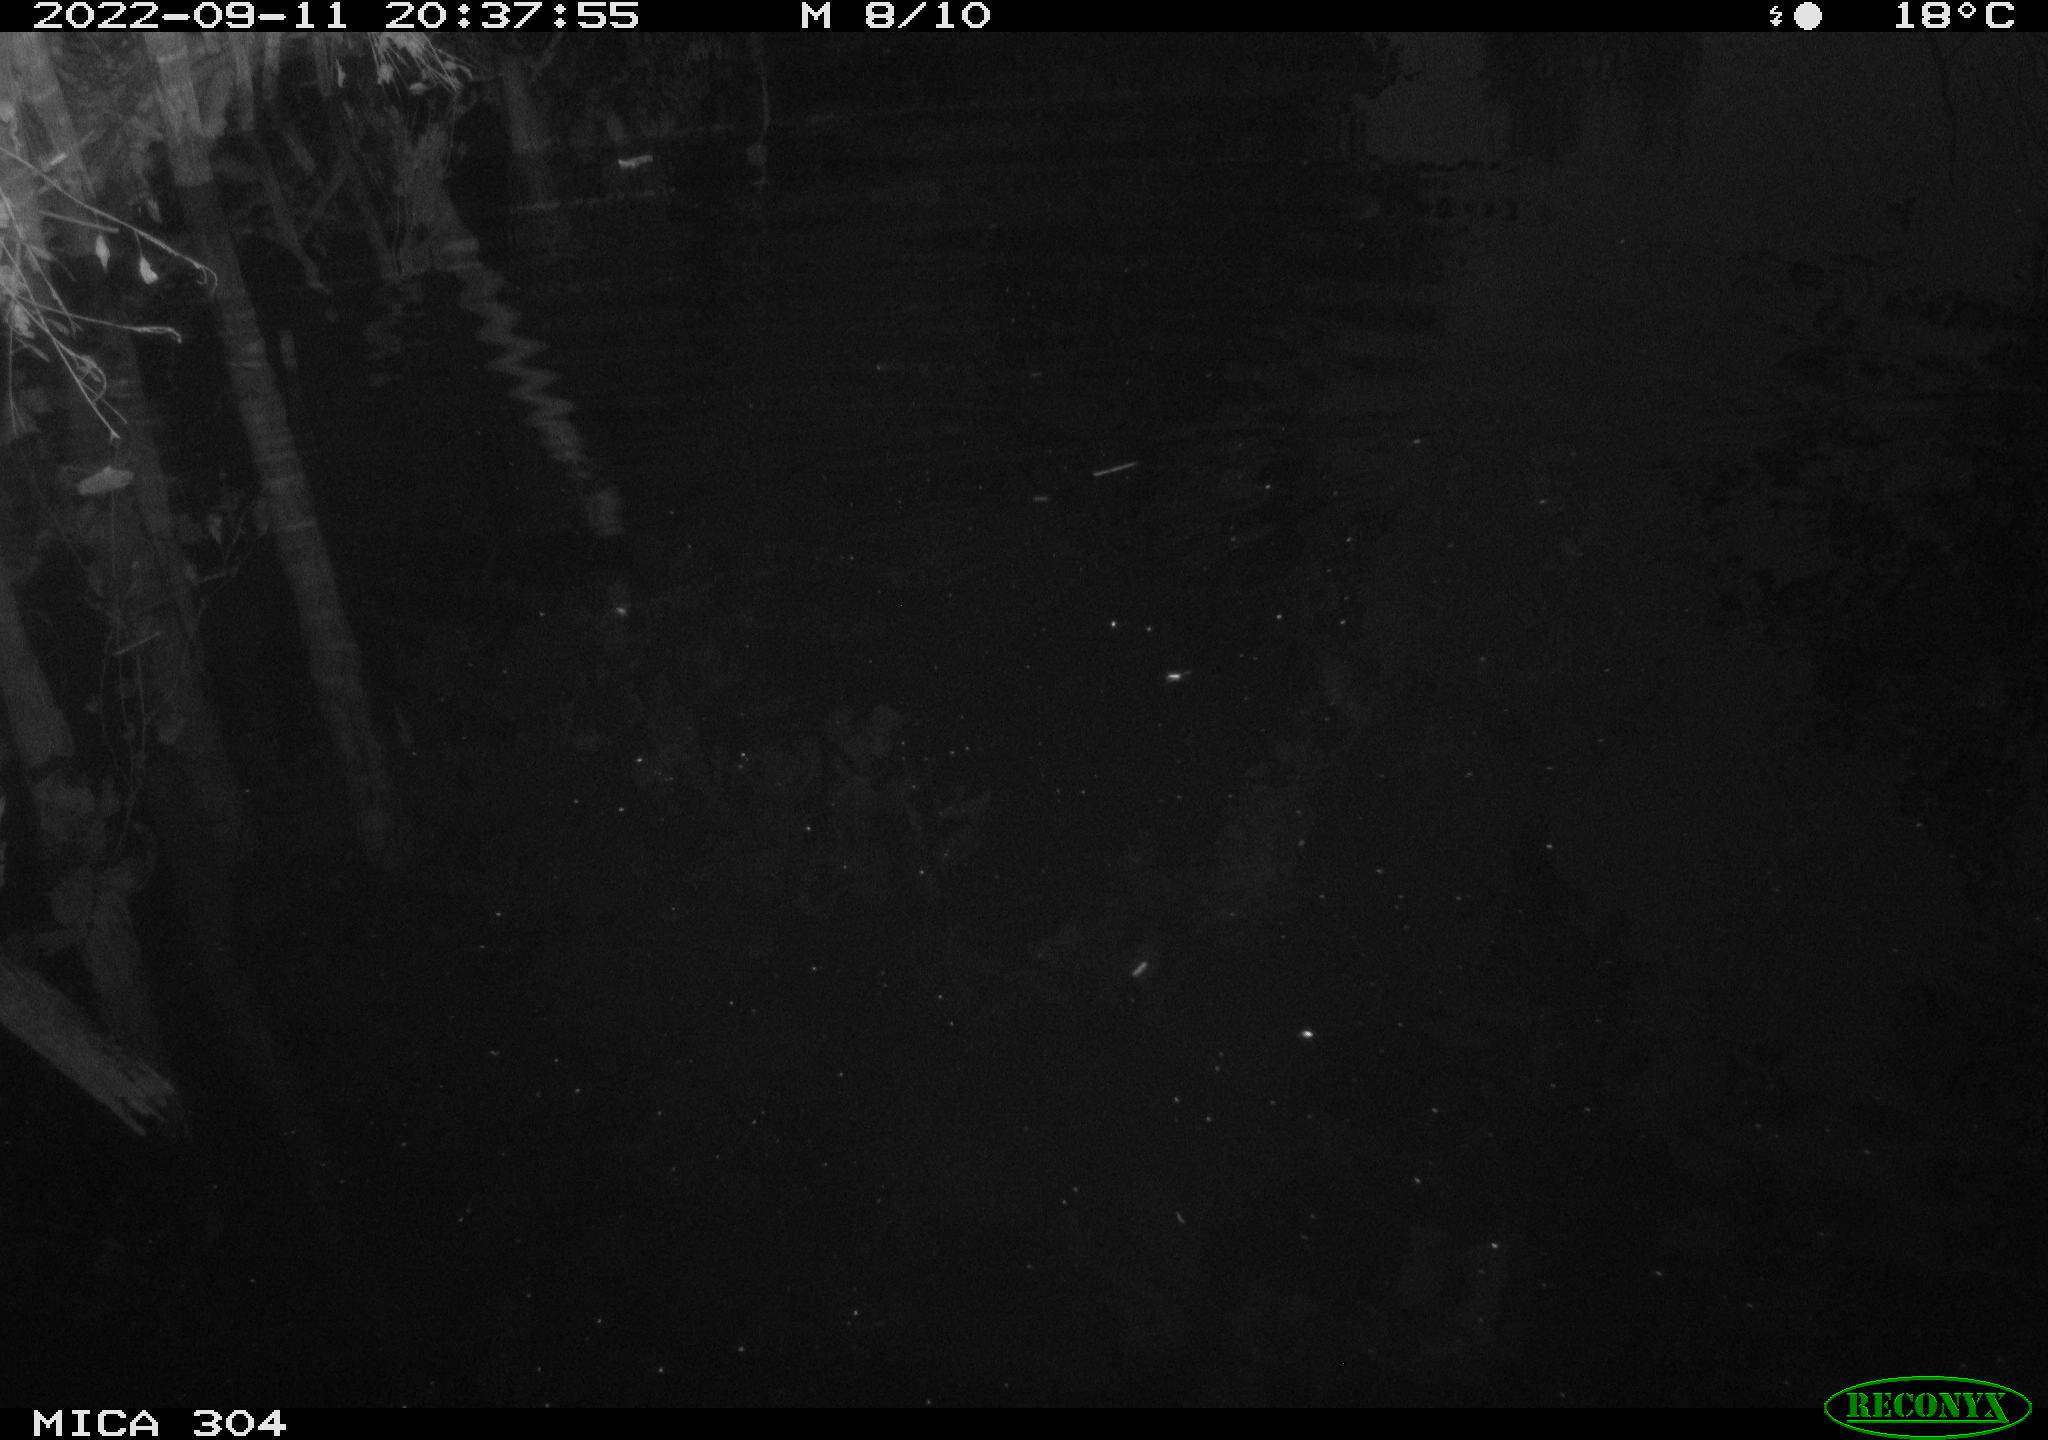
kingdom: Animalia
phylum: Chordata
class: Mammalia
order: Rodentia
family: Muridae
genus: Rattus
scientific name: Rattus norvegicus
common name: Brown rat
